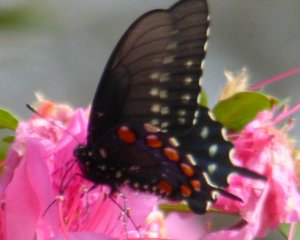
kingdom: Animalia
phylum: Arthropoda
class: Insecta
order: Lepidoptera
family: Papilionidae
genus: Battus
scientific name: Battus philenor
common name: Pipevine Swallowtail
